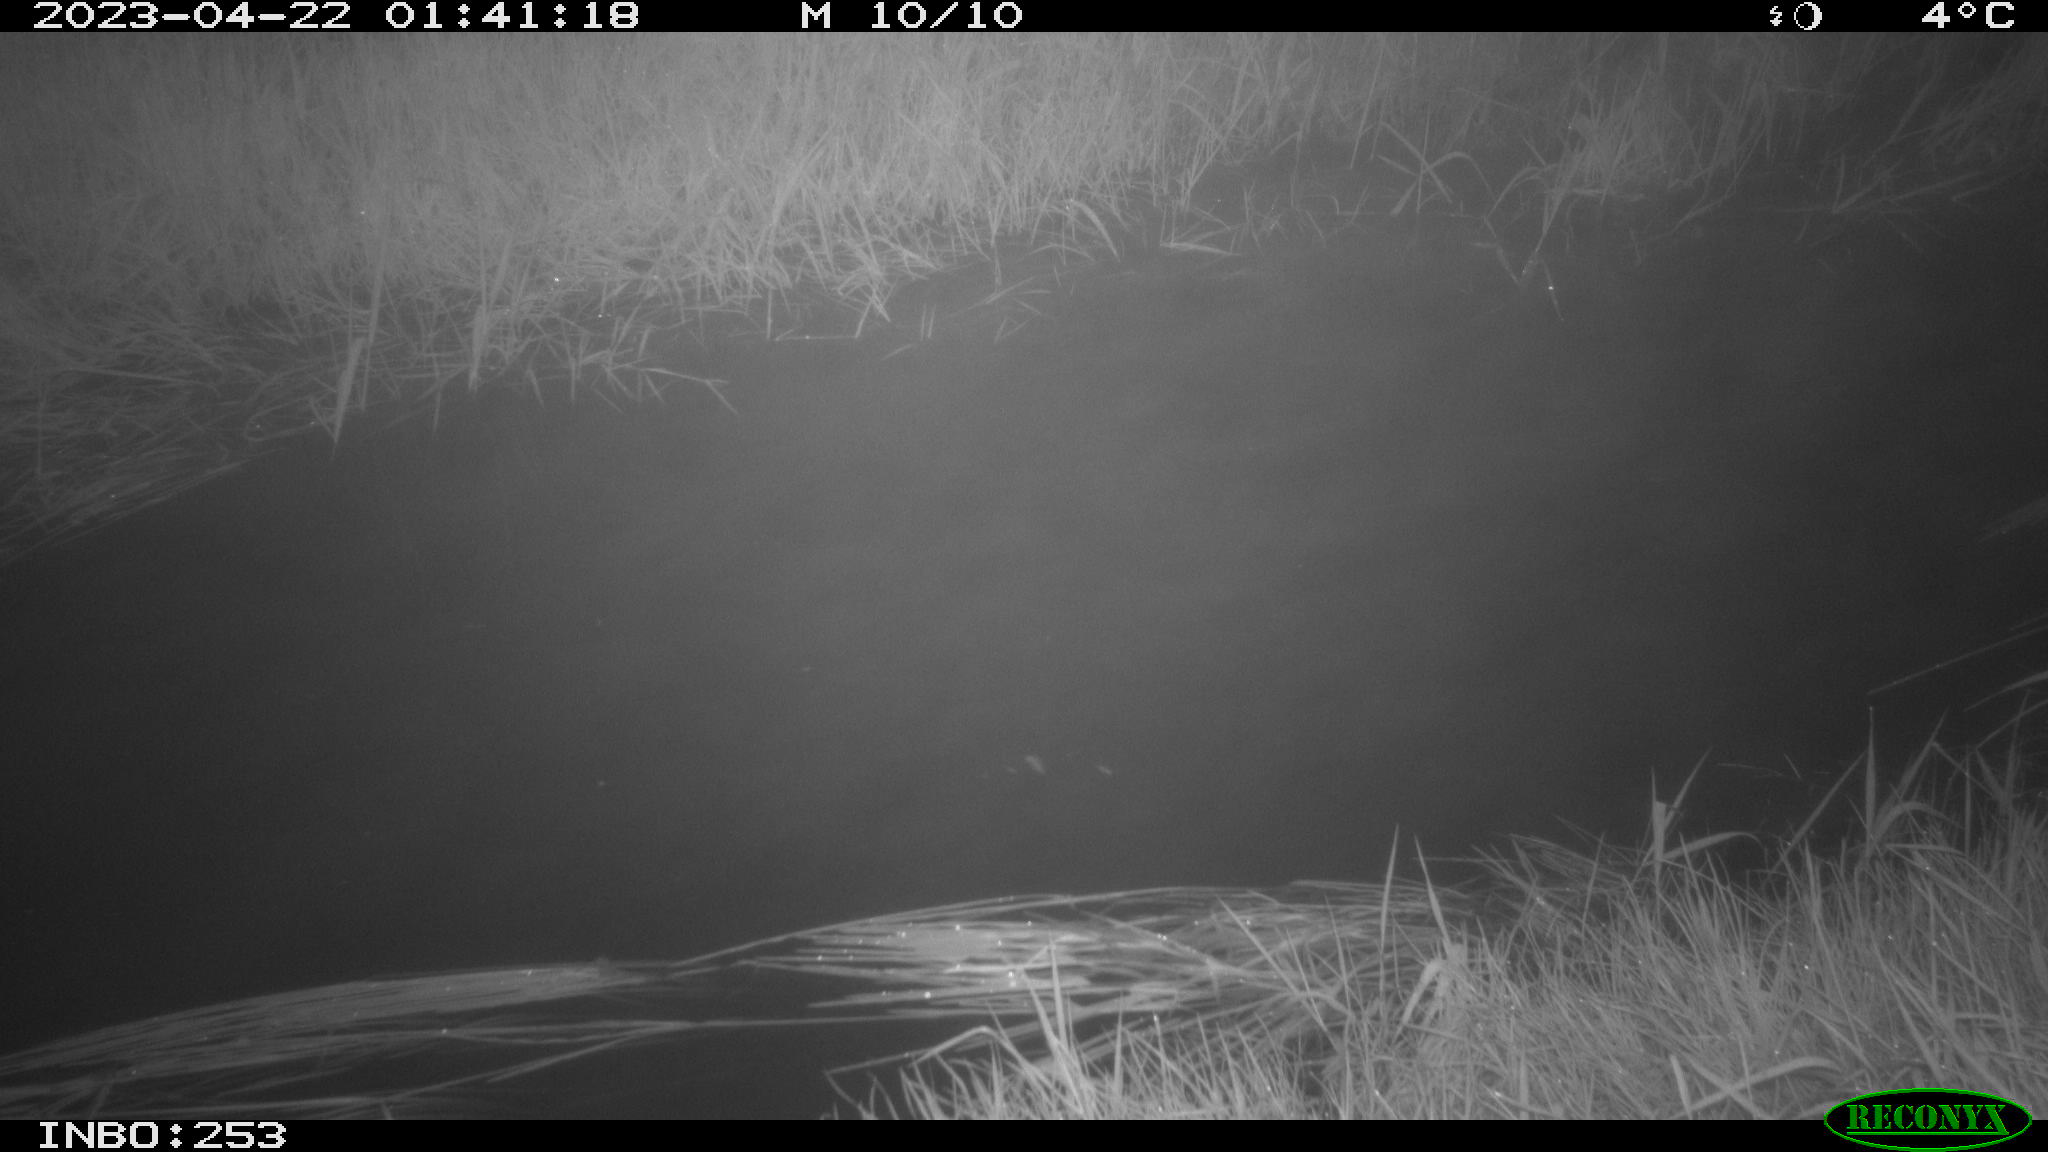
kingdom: Animalia
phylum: Chordata
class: Aves
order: Anseriformes
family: Anatidae
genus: Anas
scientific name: Anas
